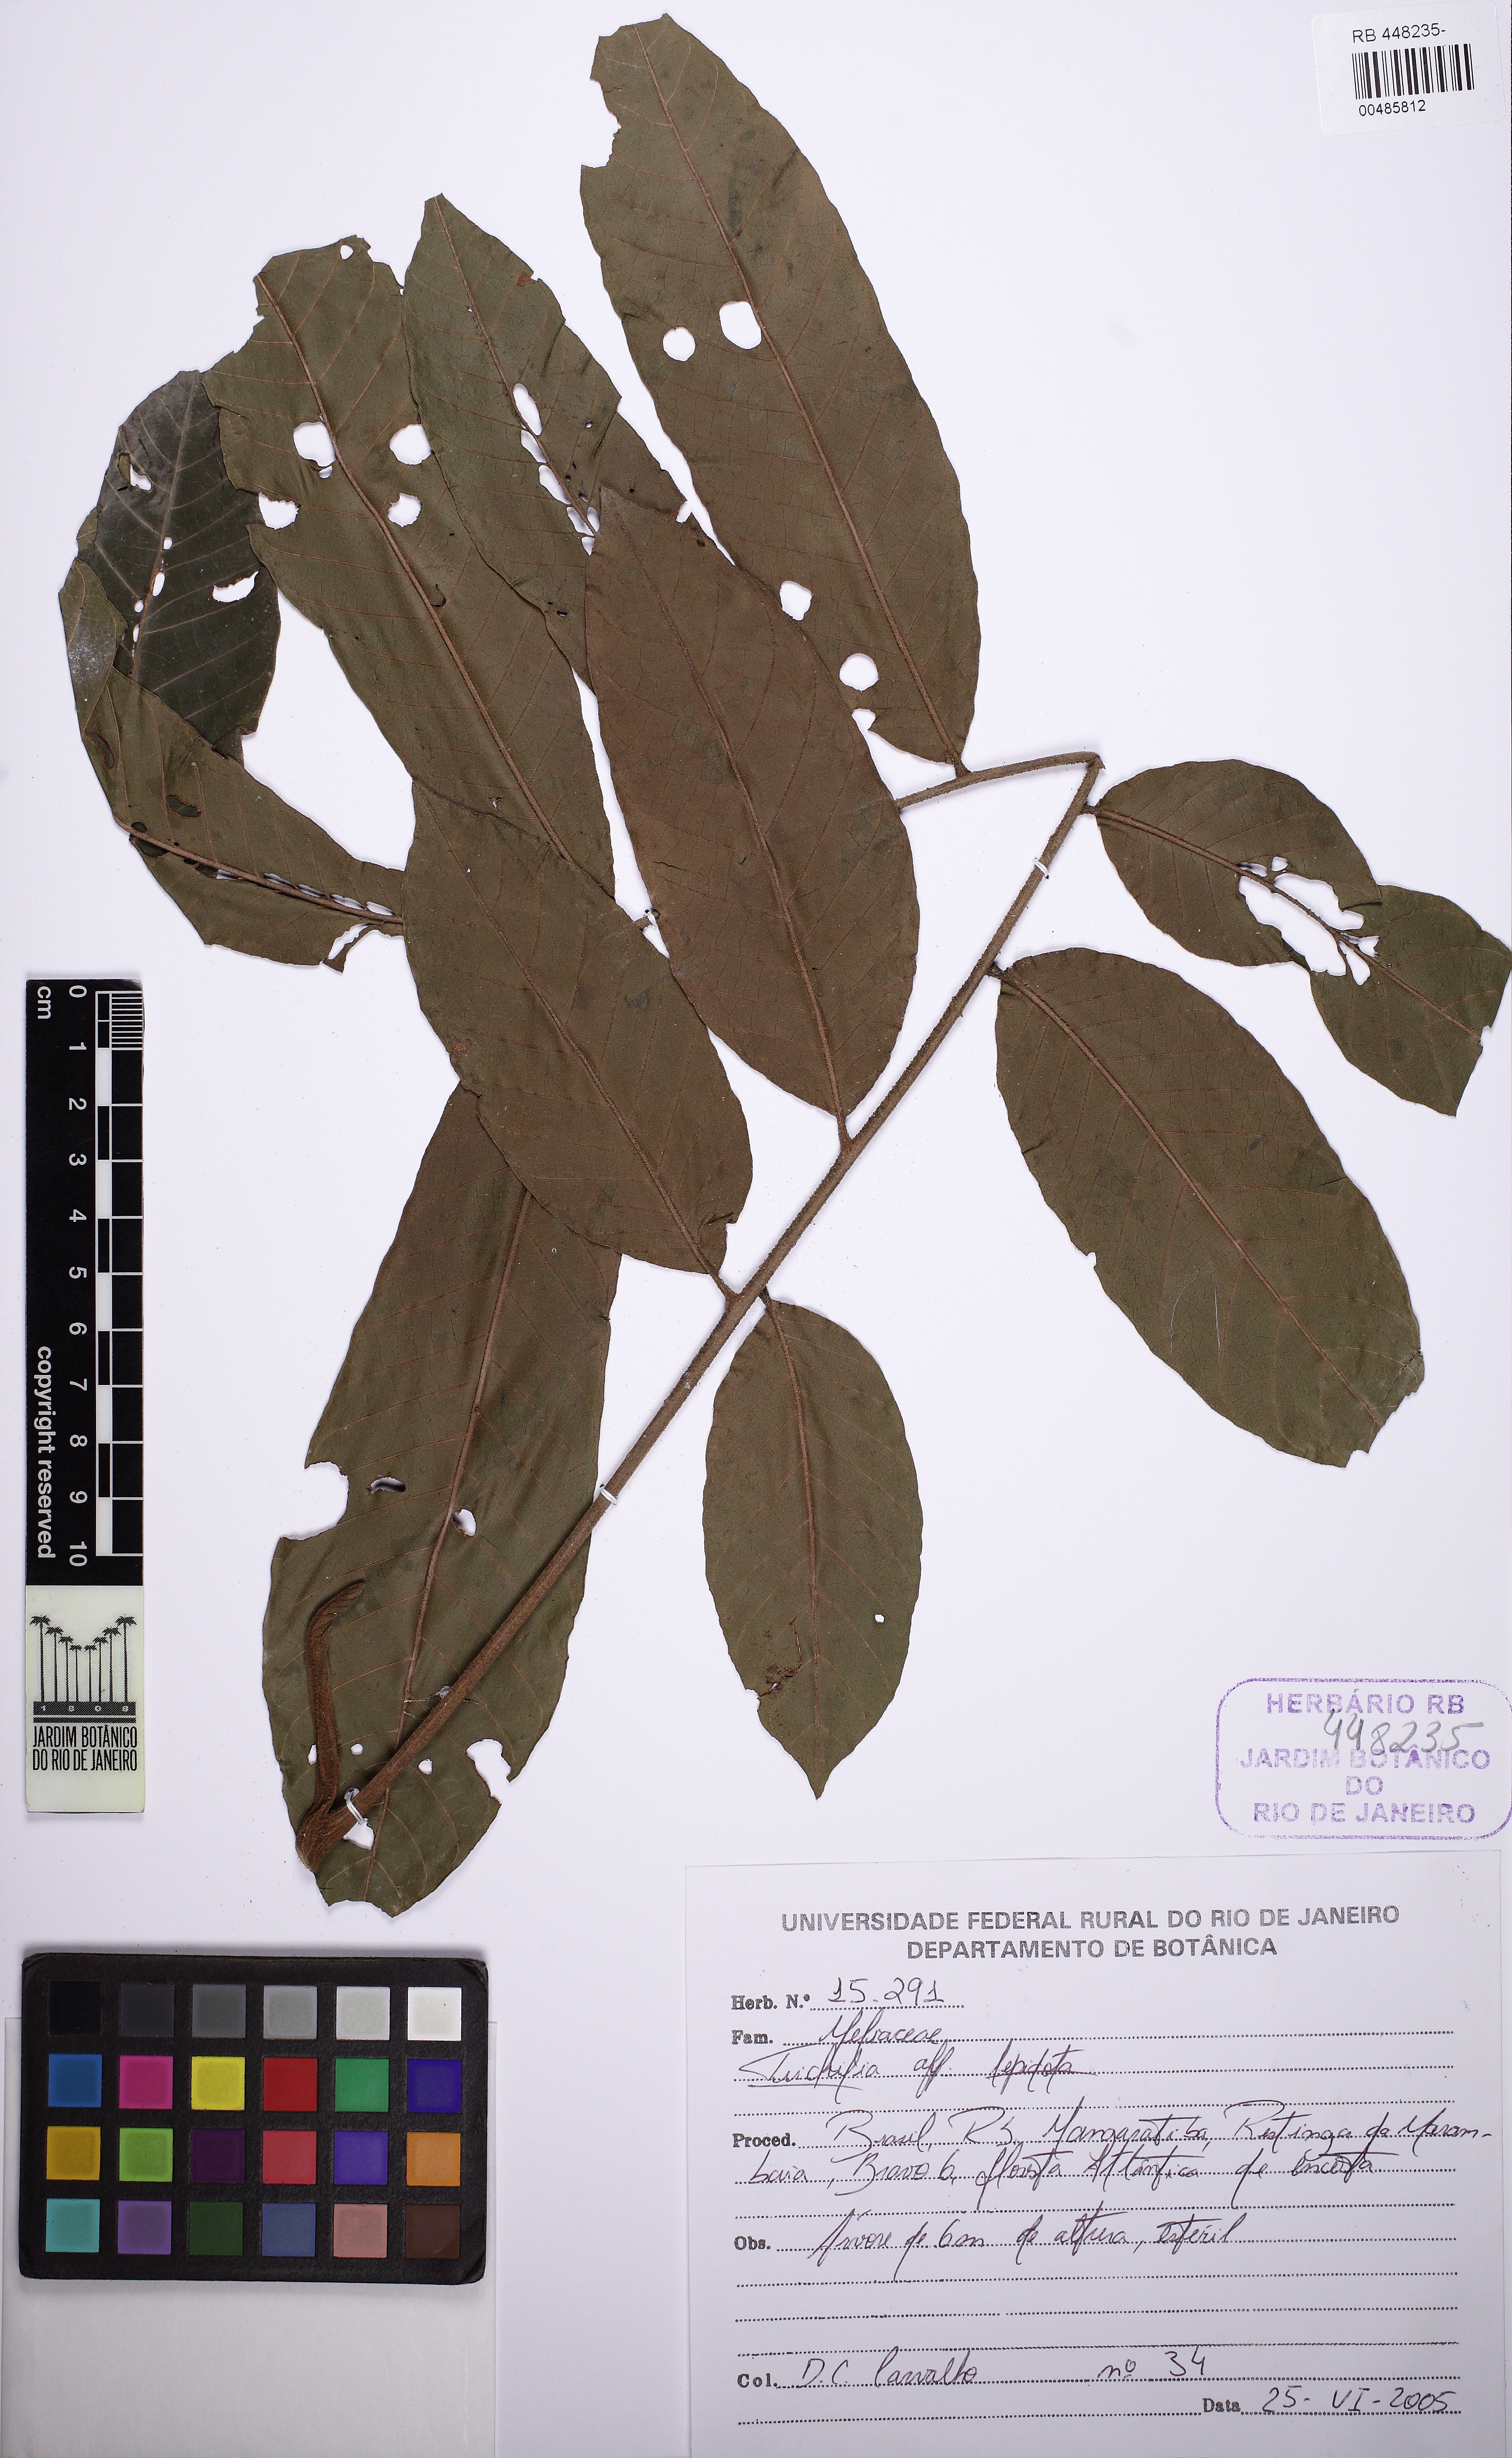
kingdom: Plantae
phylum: Tracheophyta
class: Magnoliopsida
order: Sapindales
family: Meliaceae
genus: Trichilia
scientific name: Trichilia lepidota
